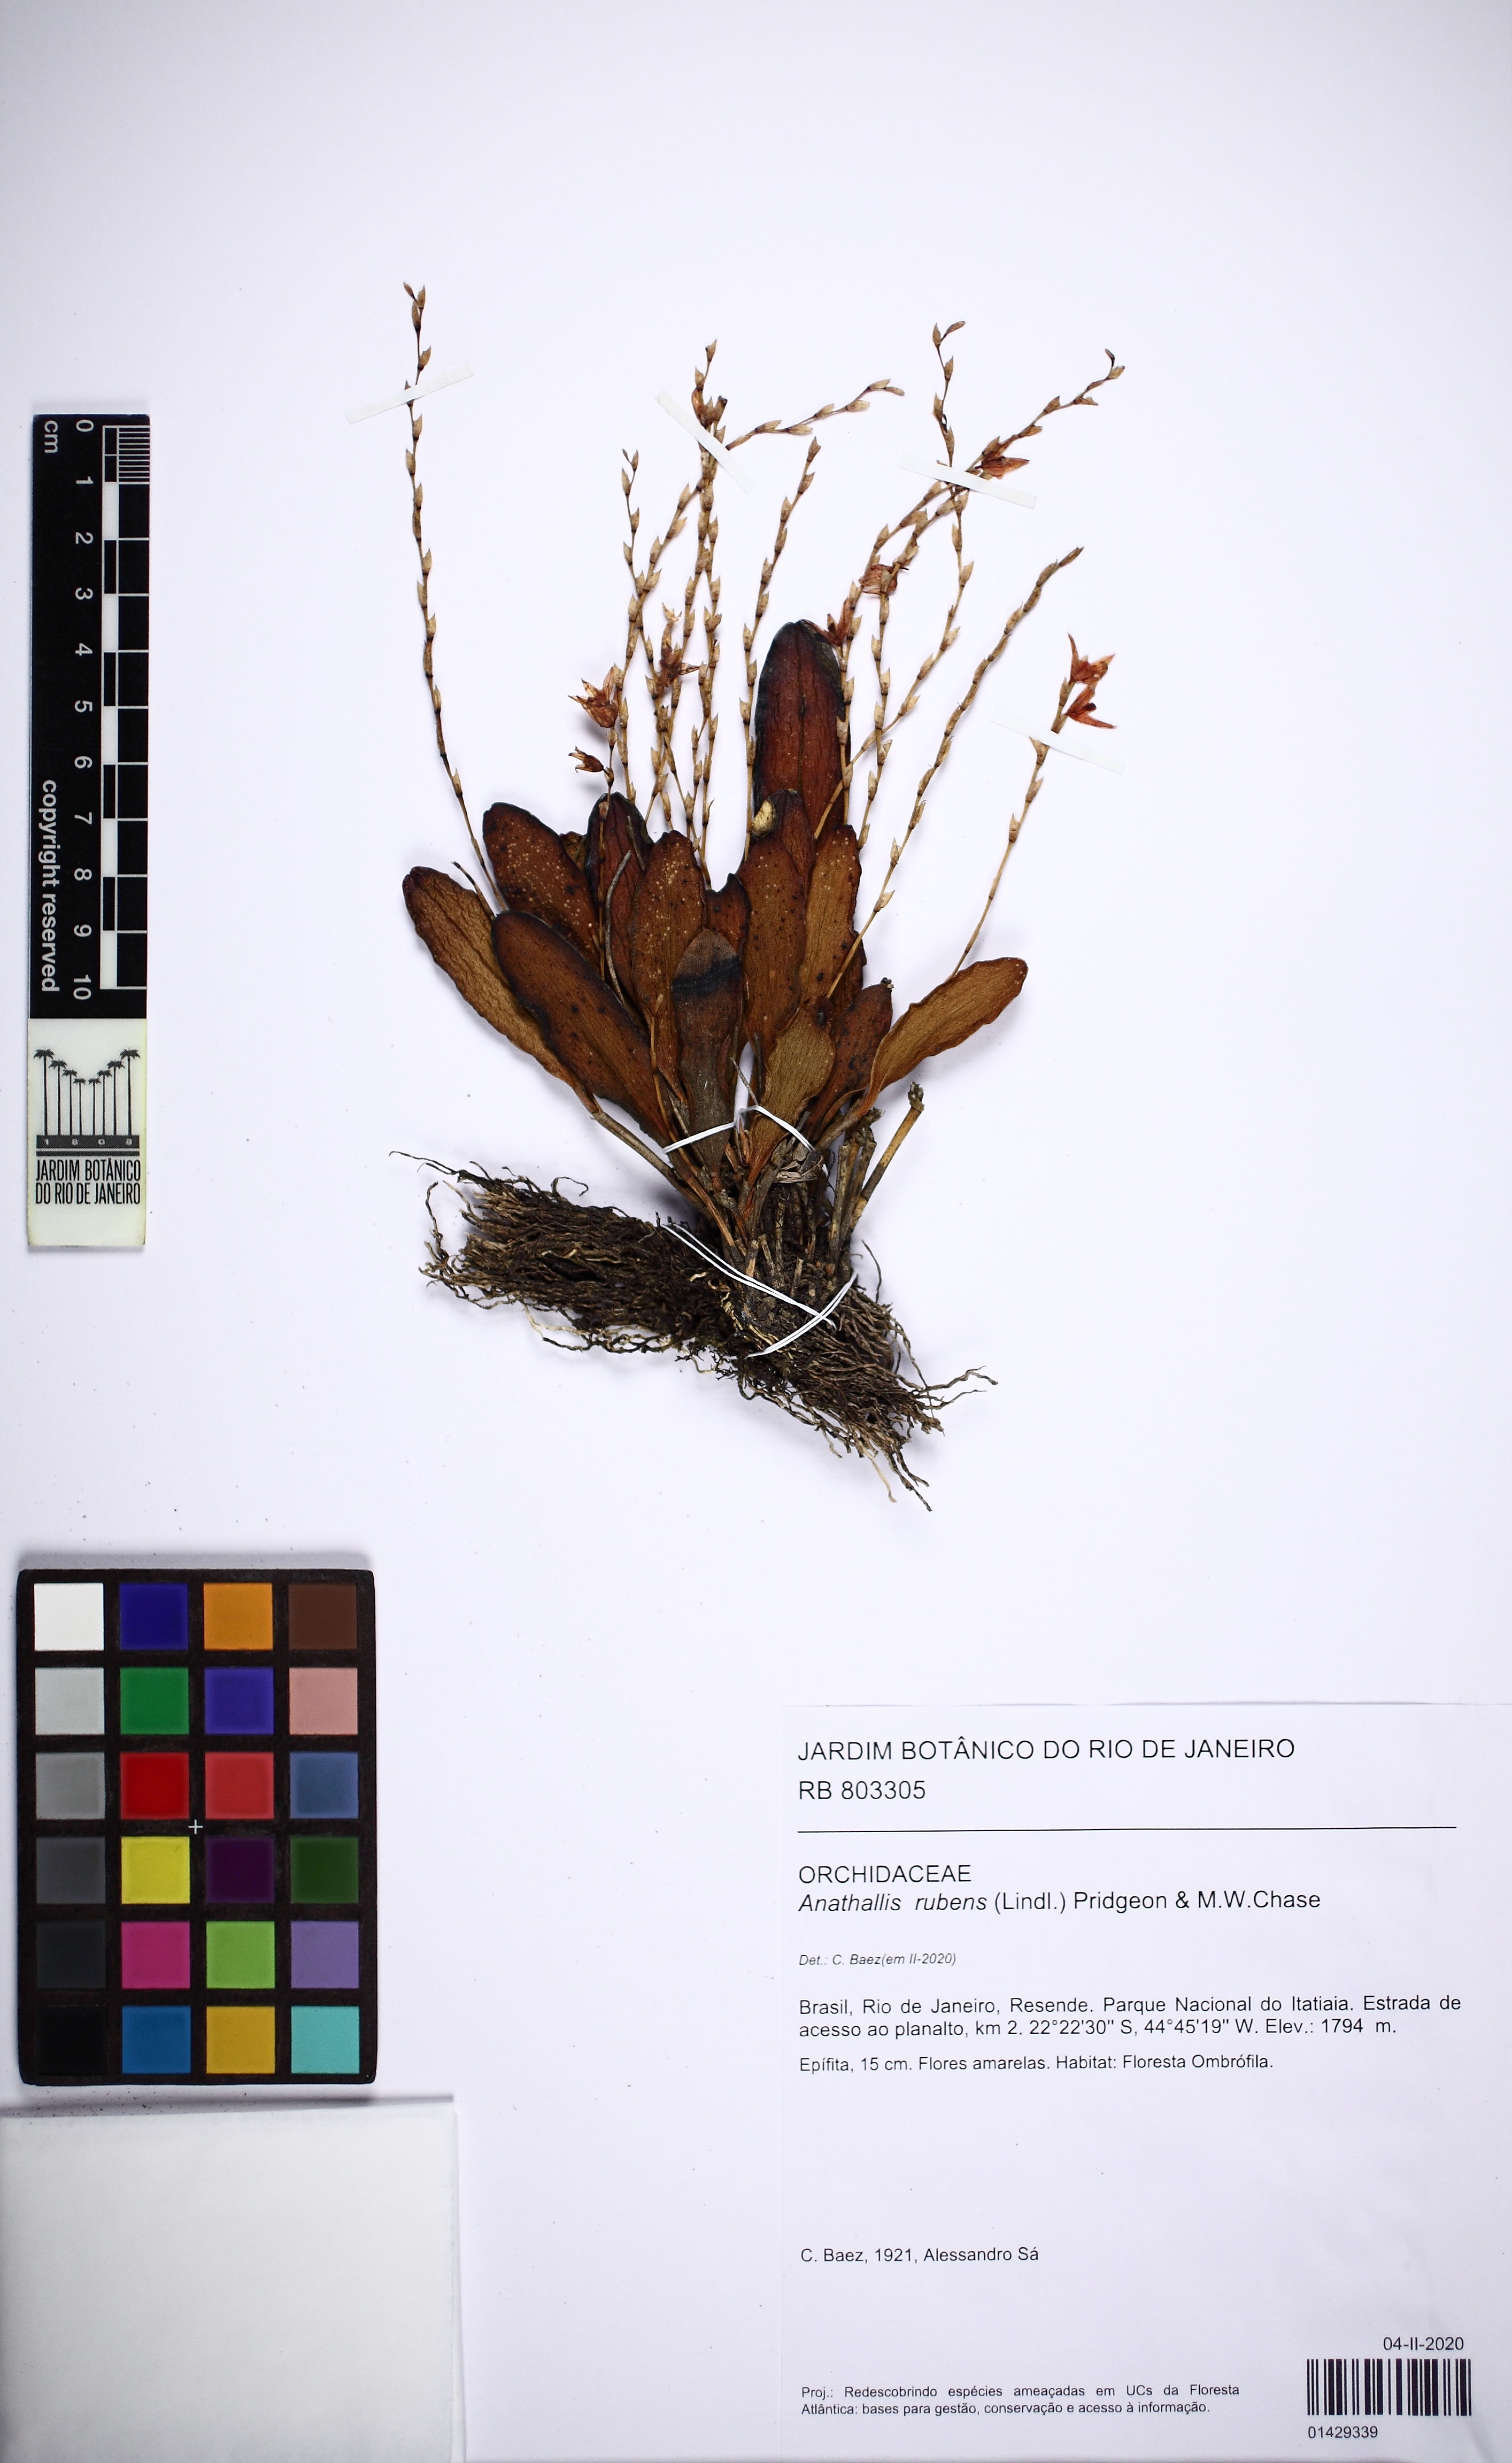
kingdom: Plantae
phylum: Tracheophyta
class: Liliopsida
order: Asparagales
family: Orchidaceae
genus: Stelis
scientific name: Stelis montserratii
